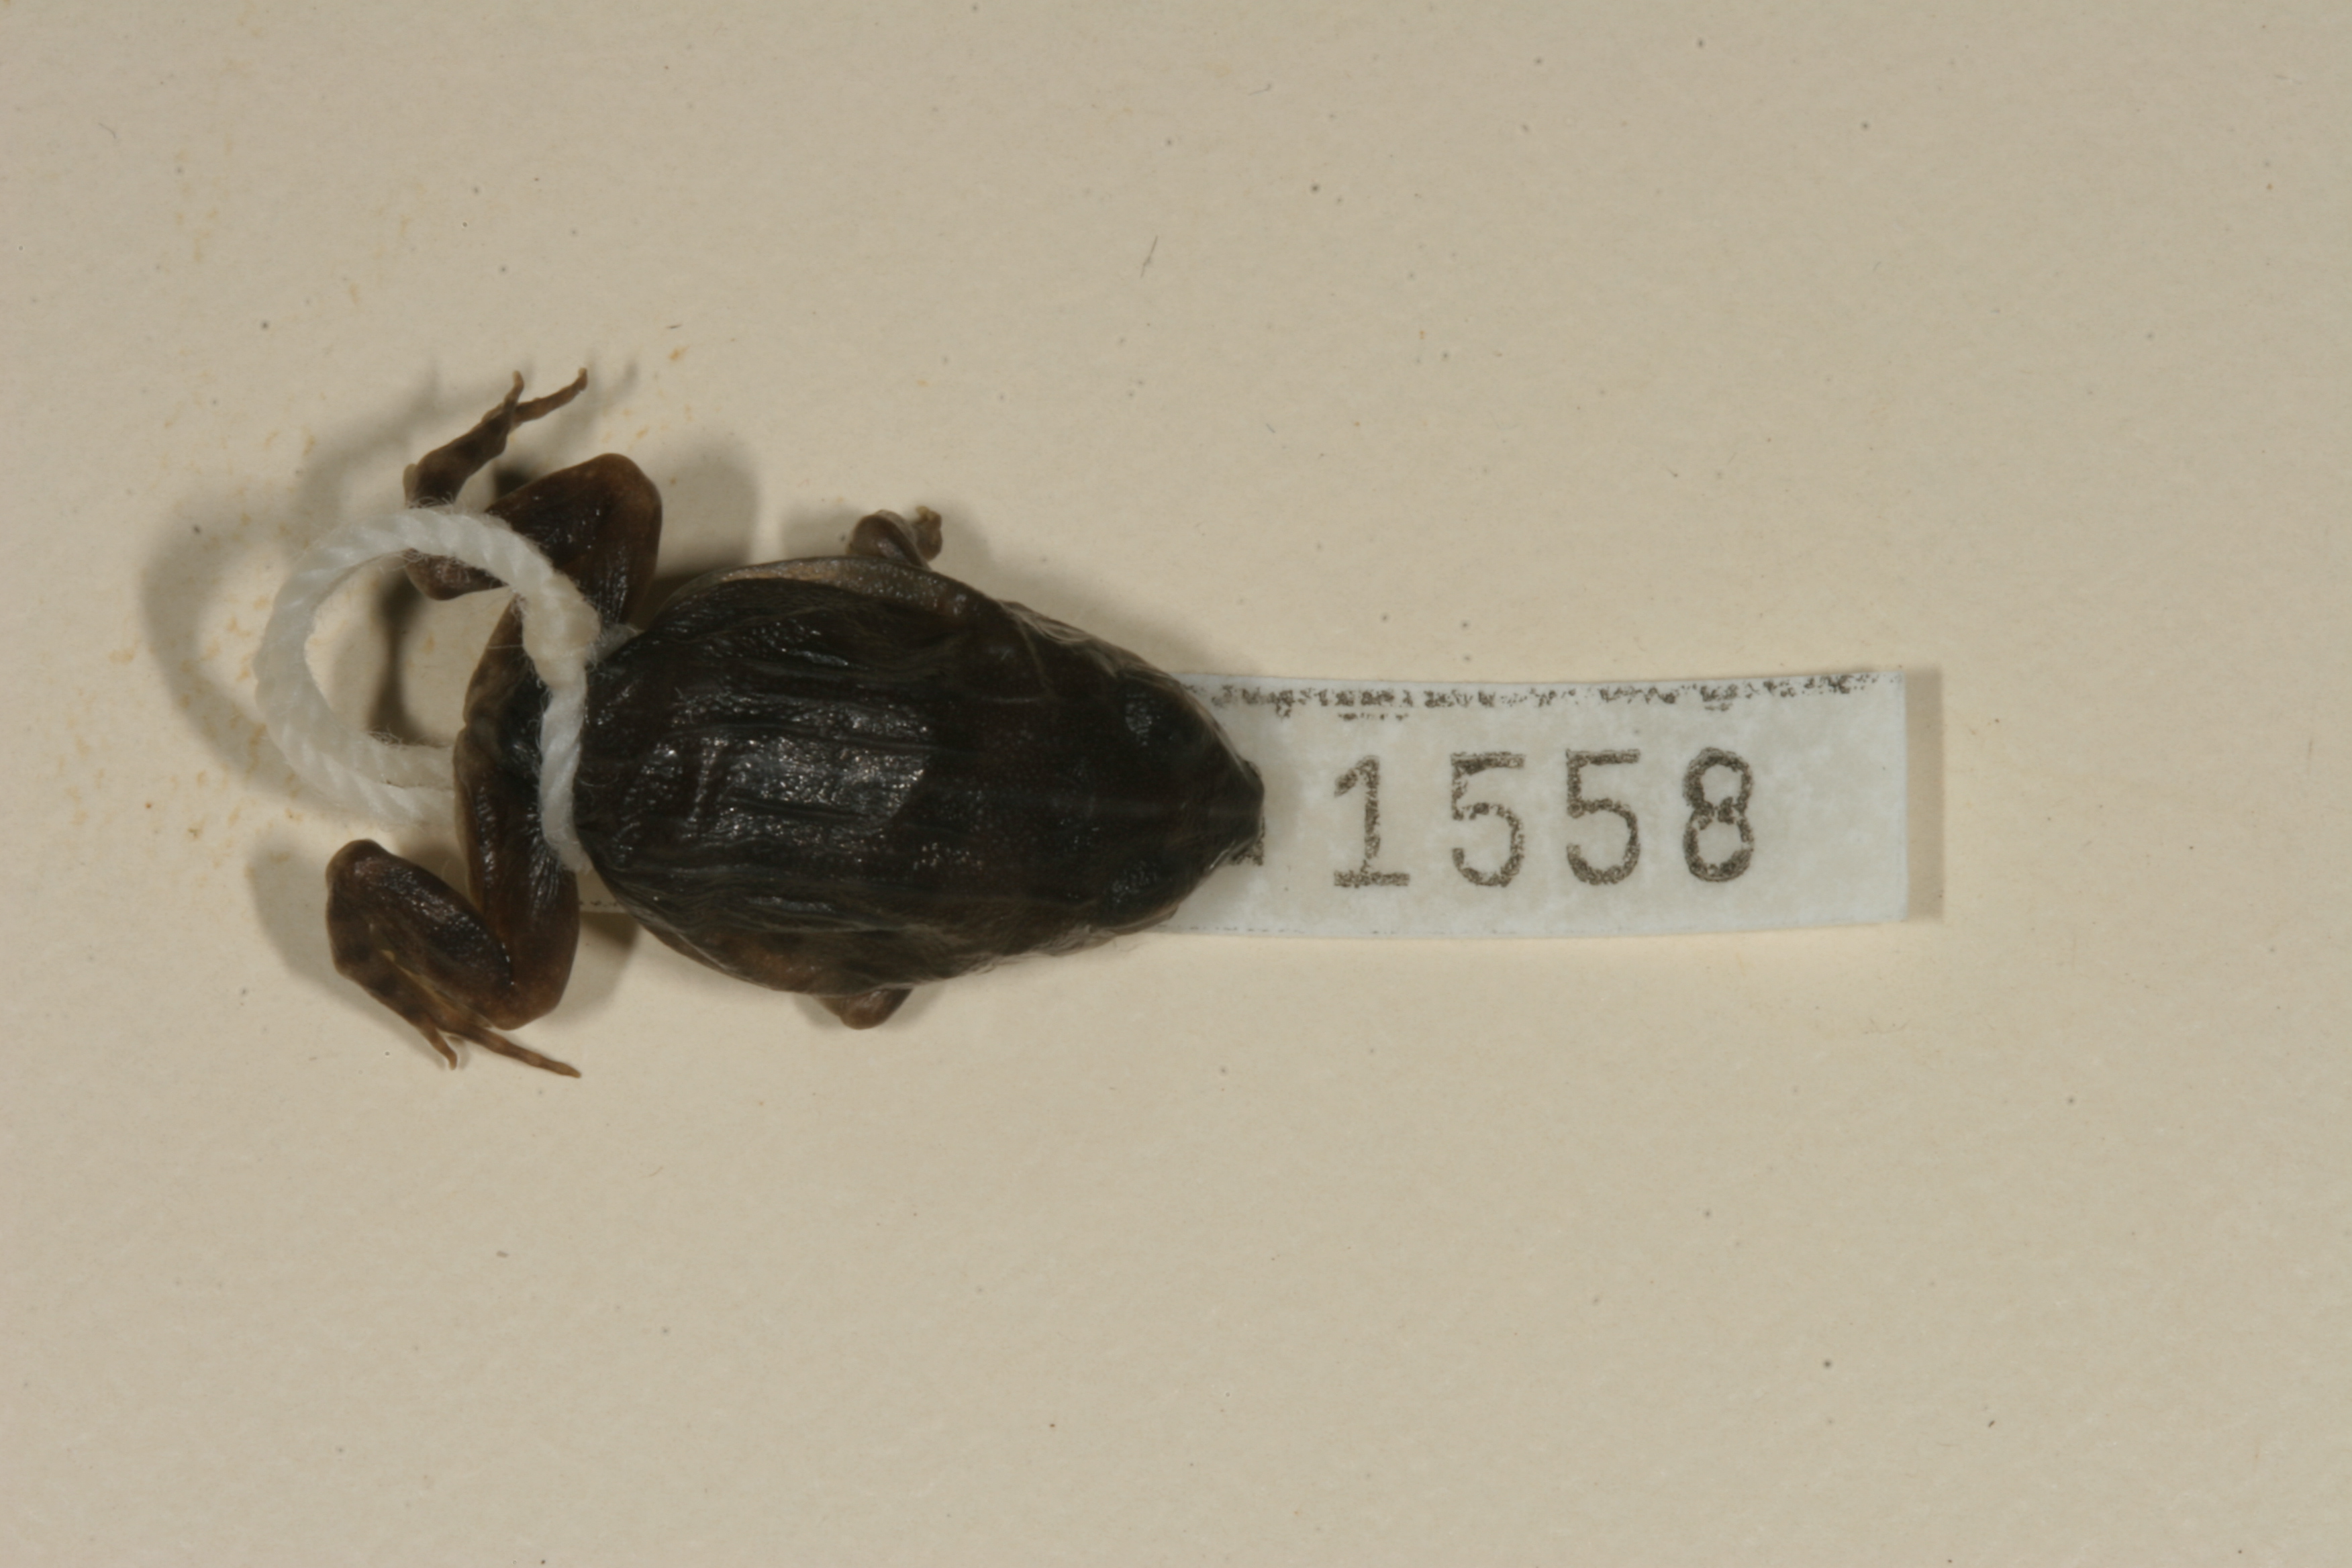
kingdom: Animalia
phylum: Chordata
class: Amphibia
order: Anura
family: Pyxicephalidae
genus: Pyxicephalus
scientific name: Pyxicephalus edulis
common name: Peter's bullfrog
